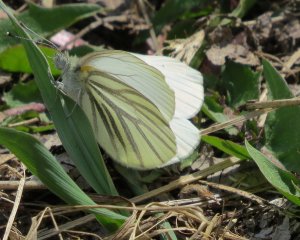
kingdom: Animalia
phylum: Arthropoda
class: Insecta
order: Lepidoptera
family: Pieridae
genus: Pieris
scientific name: Pieris oleracea
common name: Mustard White
